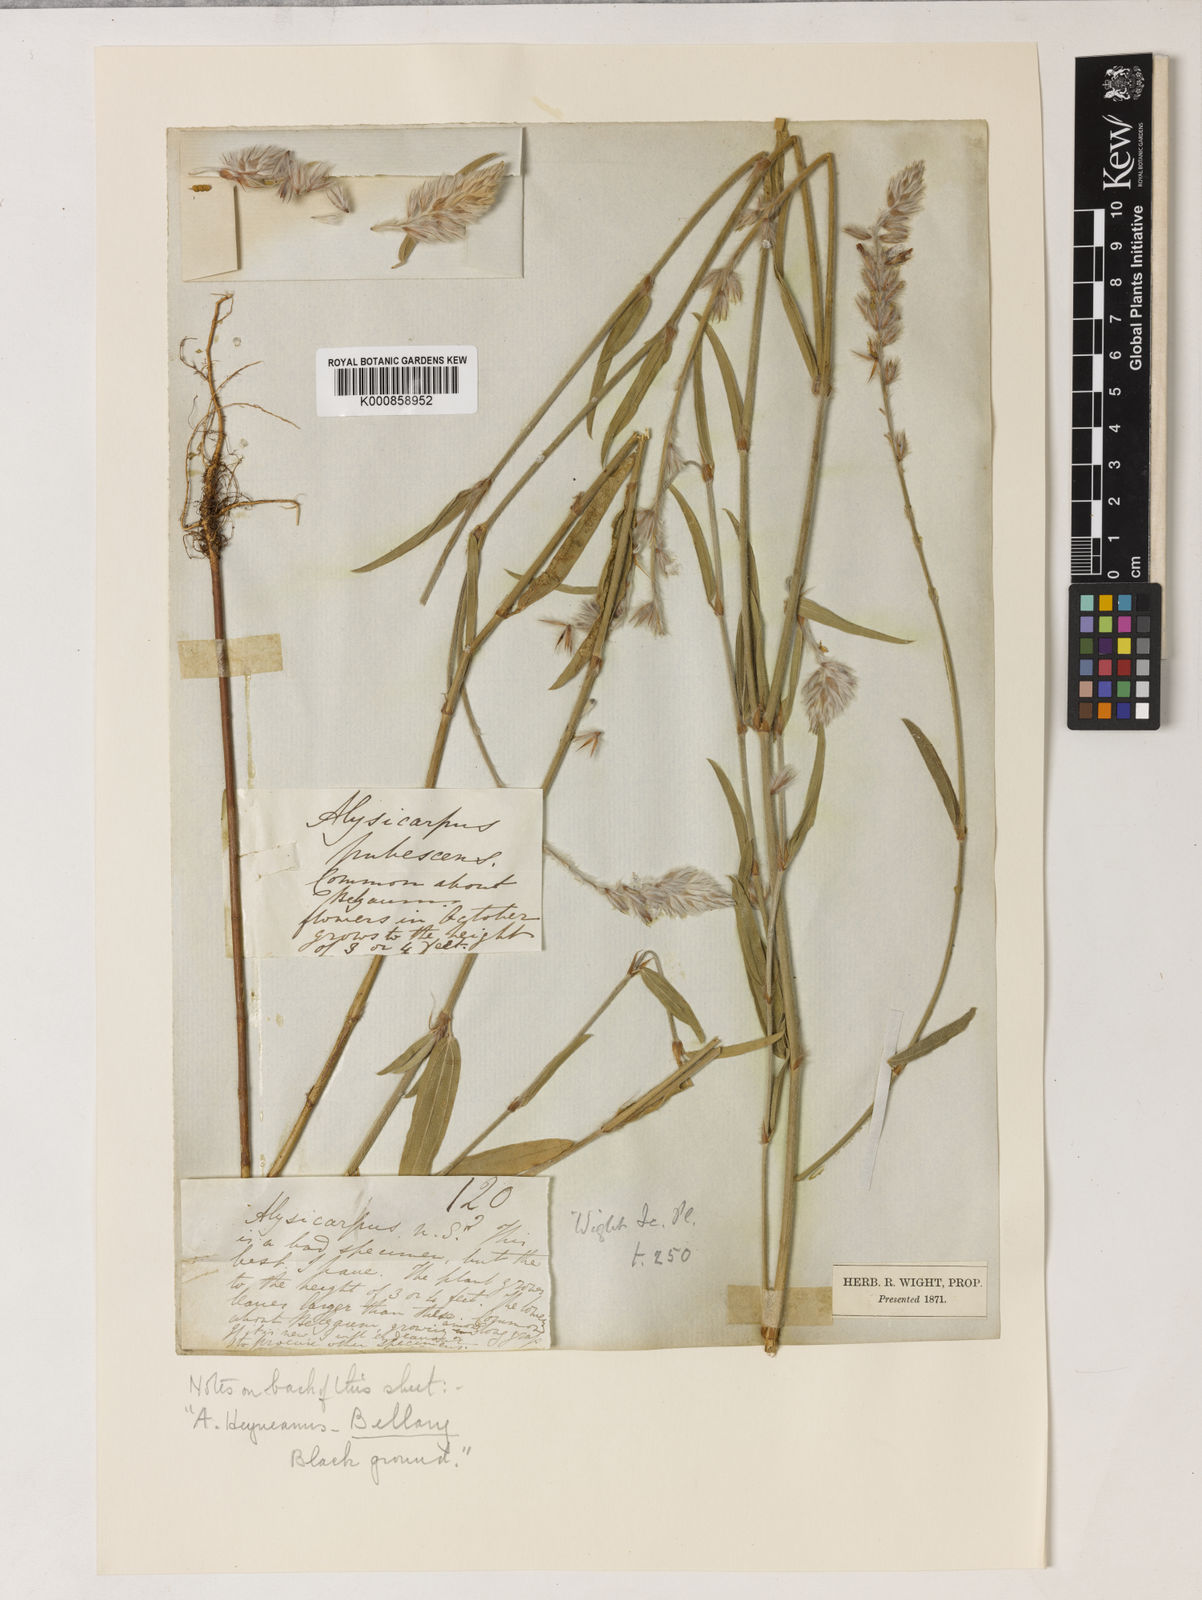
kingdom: Plantae
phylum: Tracheophyta
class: Magnoliopsida
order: Fabales
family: Fabaceae
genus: Alysicarpus
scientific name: Alysicarpus pubescens
